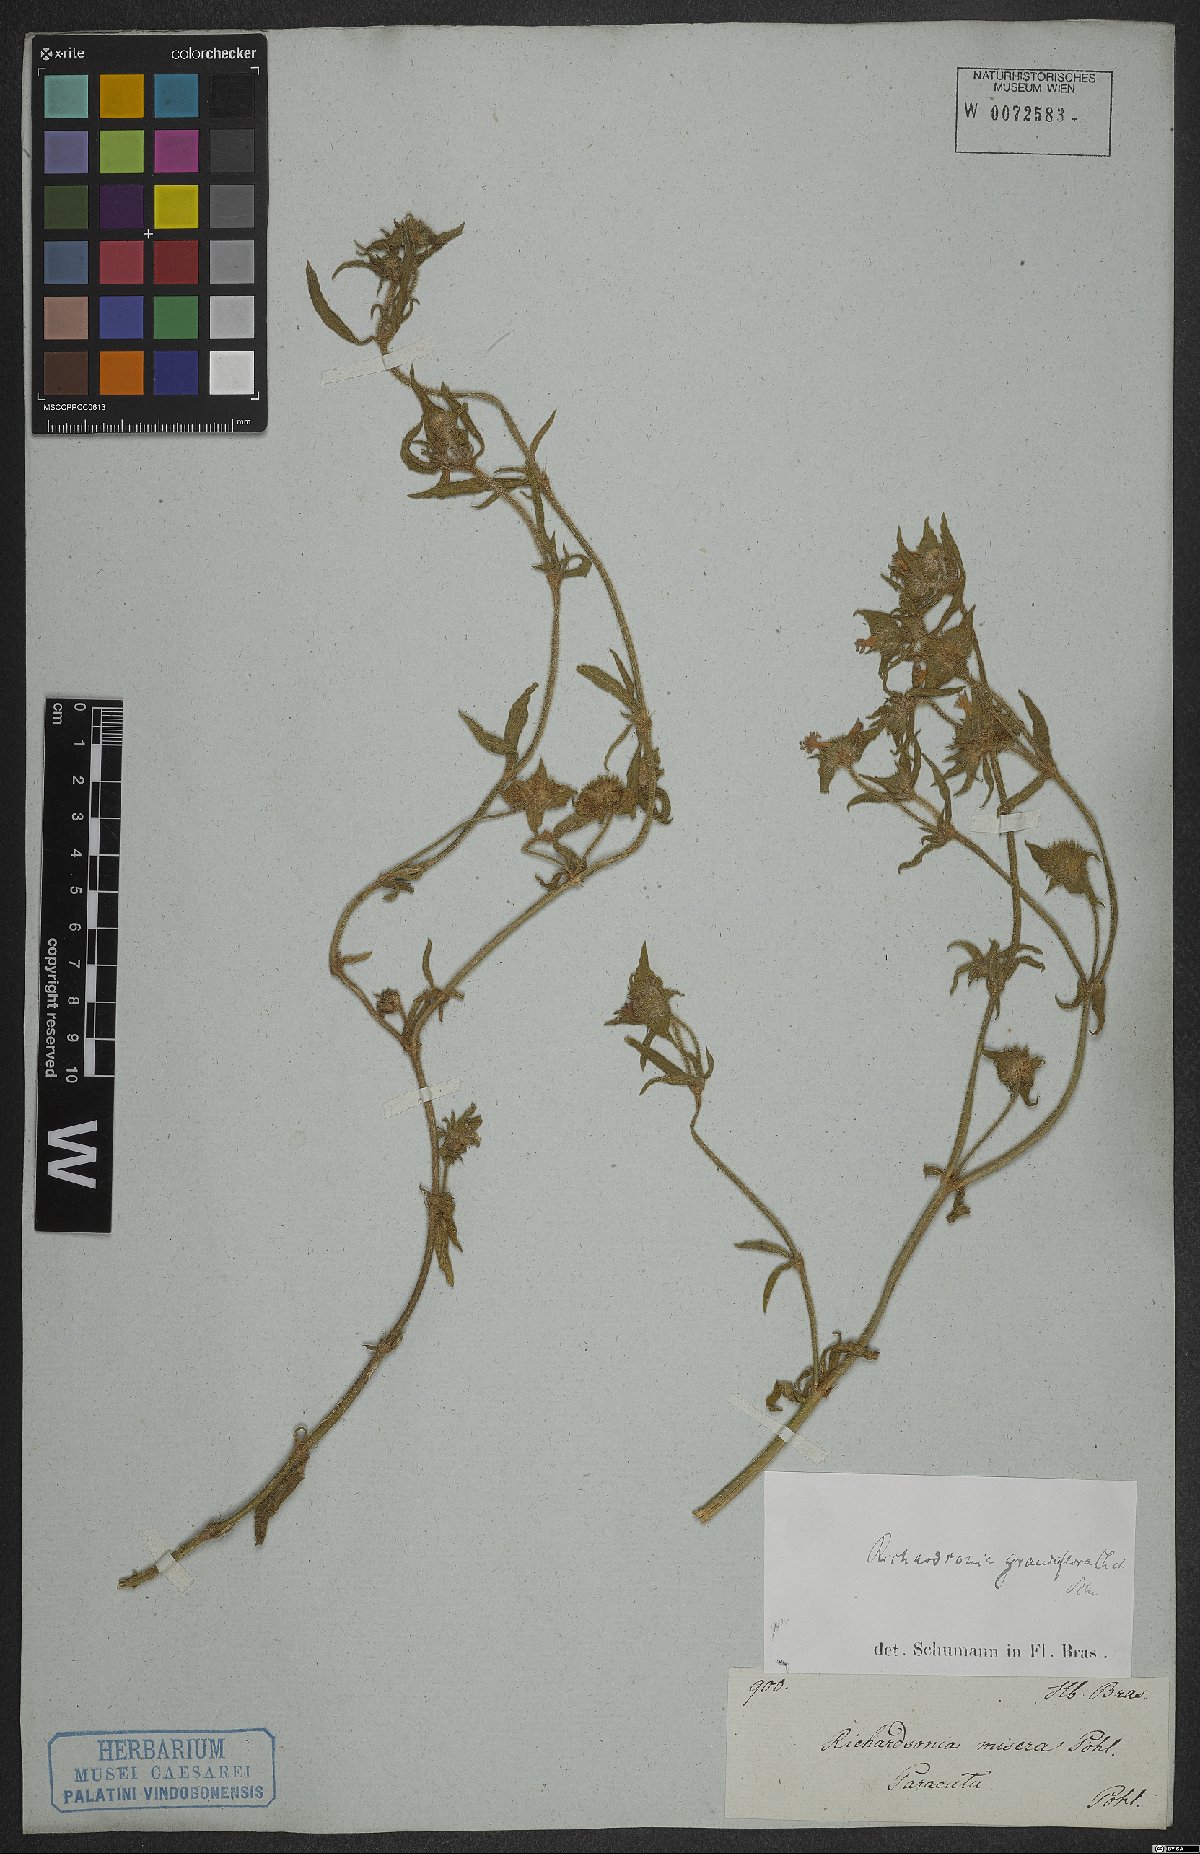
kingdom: Plantae
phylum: Tracheophyta
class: Magnoliopsida
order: Gentianales
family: Rubiaceae
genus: Richardia
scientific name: Richardia grandiflora
